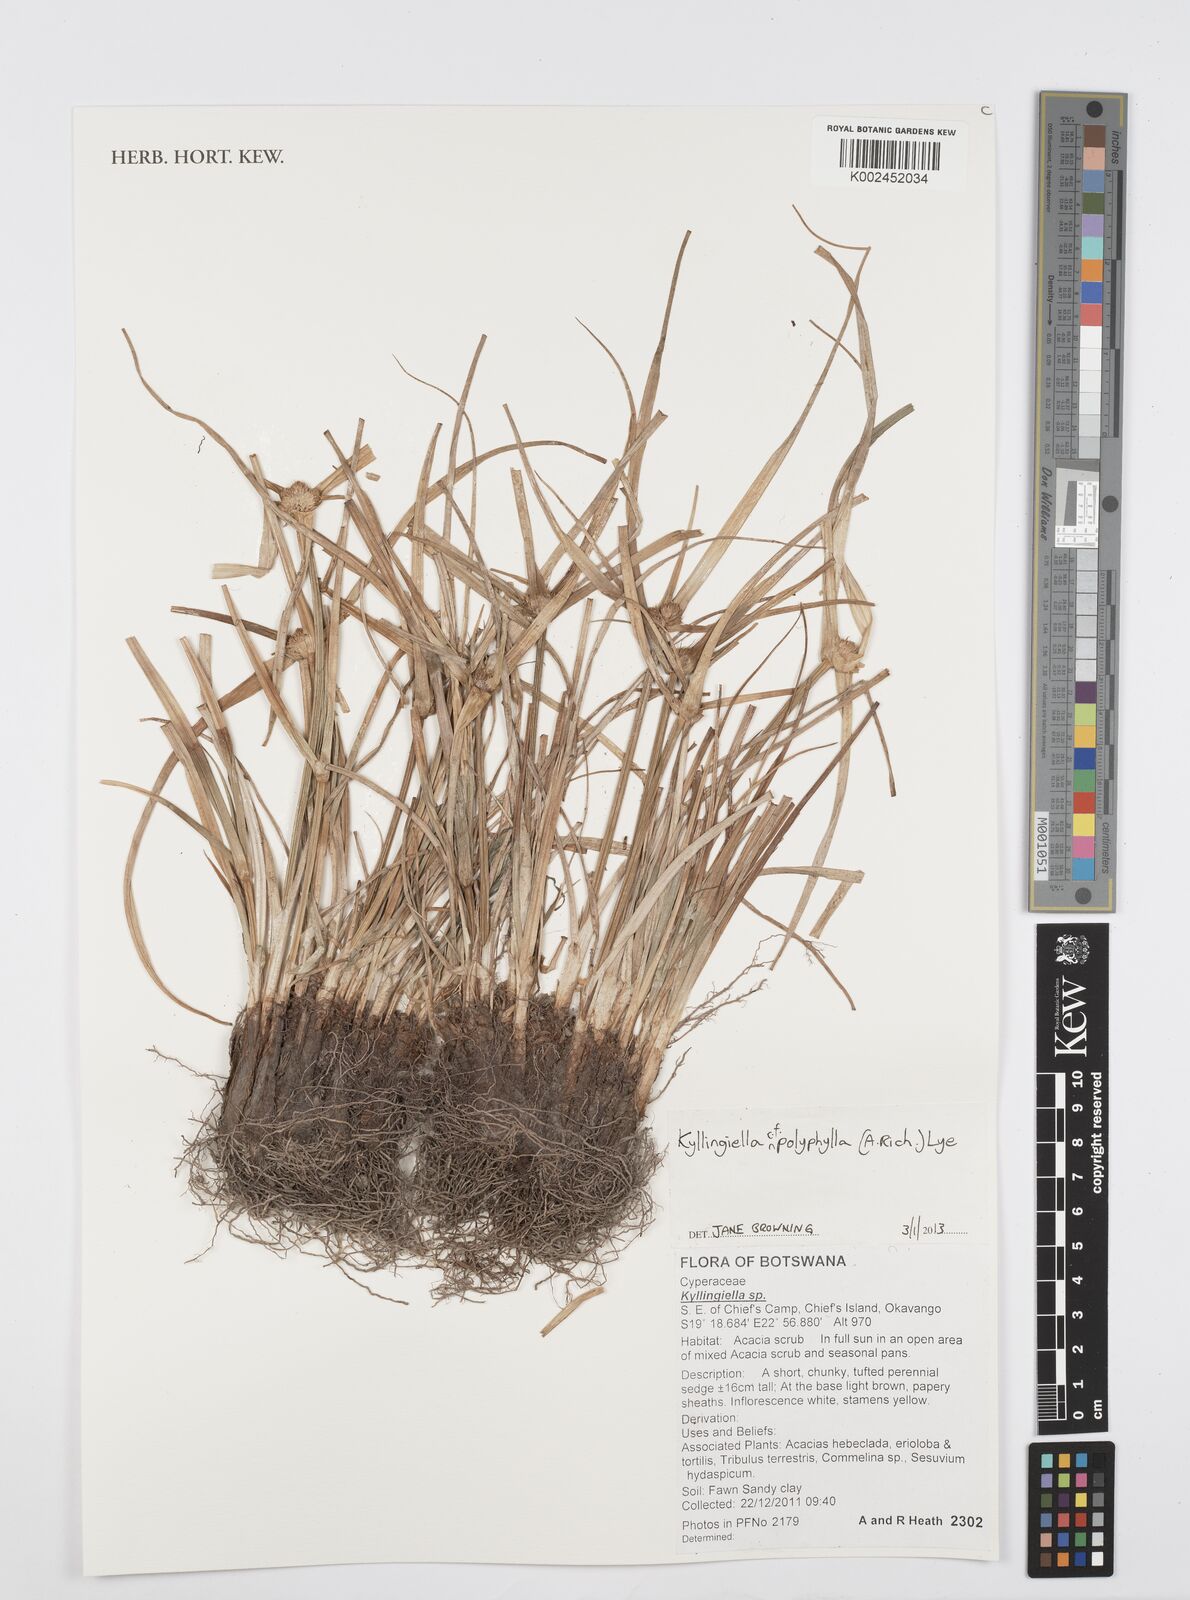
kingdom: Plantae
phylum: Tracheophyta
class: Liliopsida
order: Poales
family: Cyperaceae
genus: Cyperus
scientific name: Cyperus steudneri
